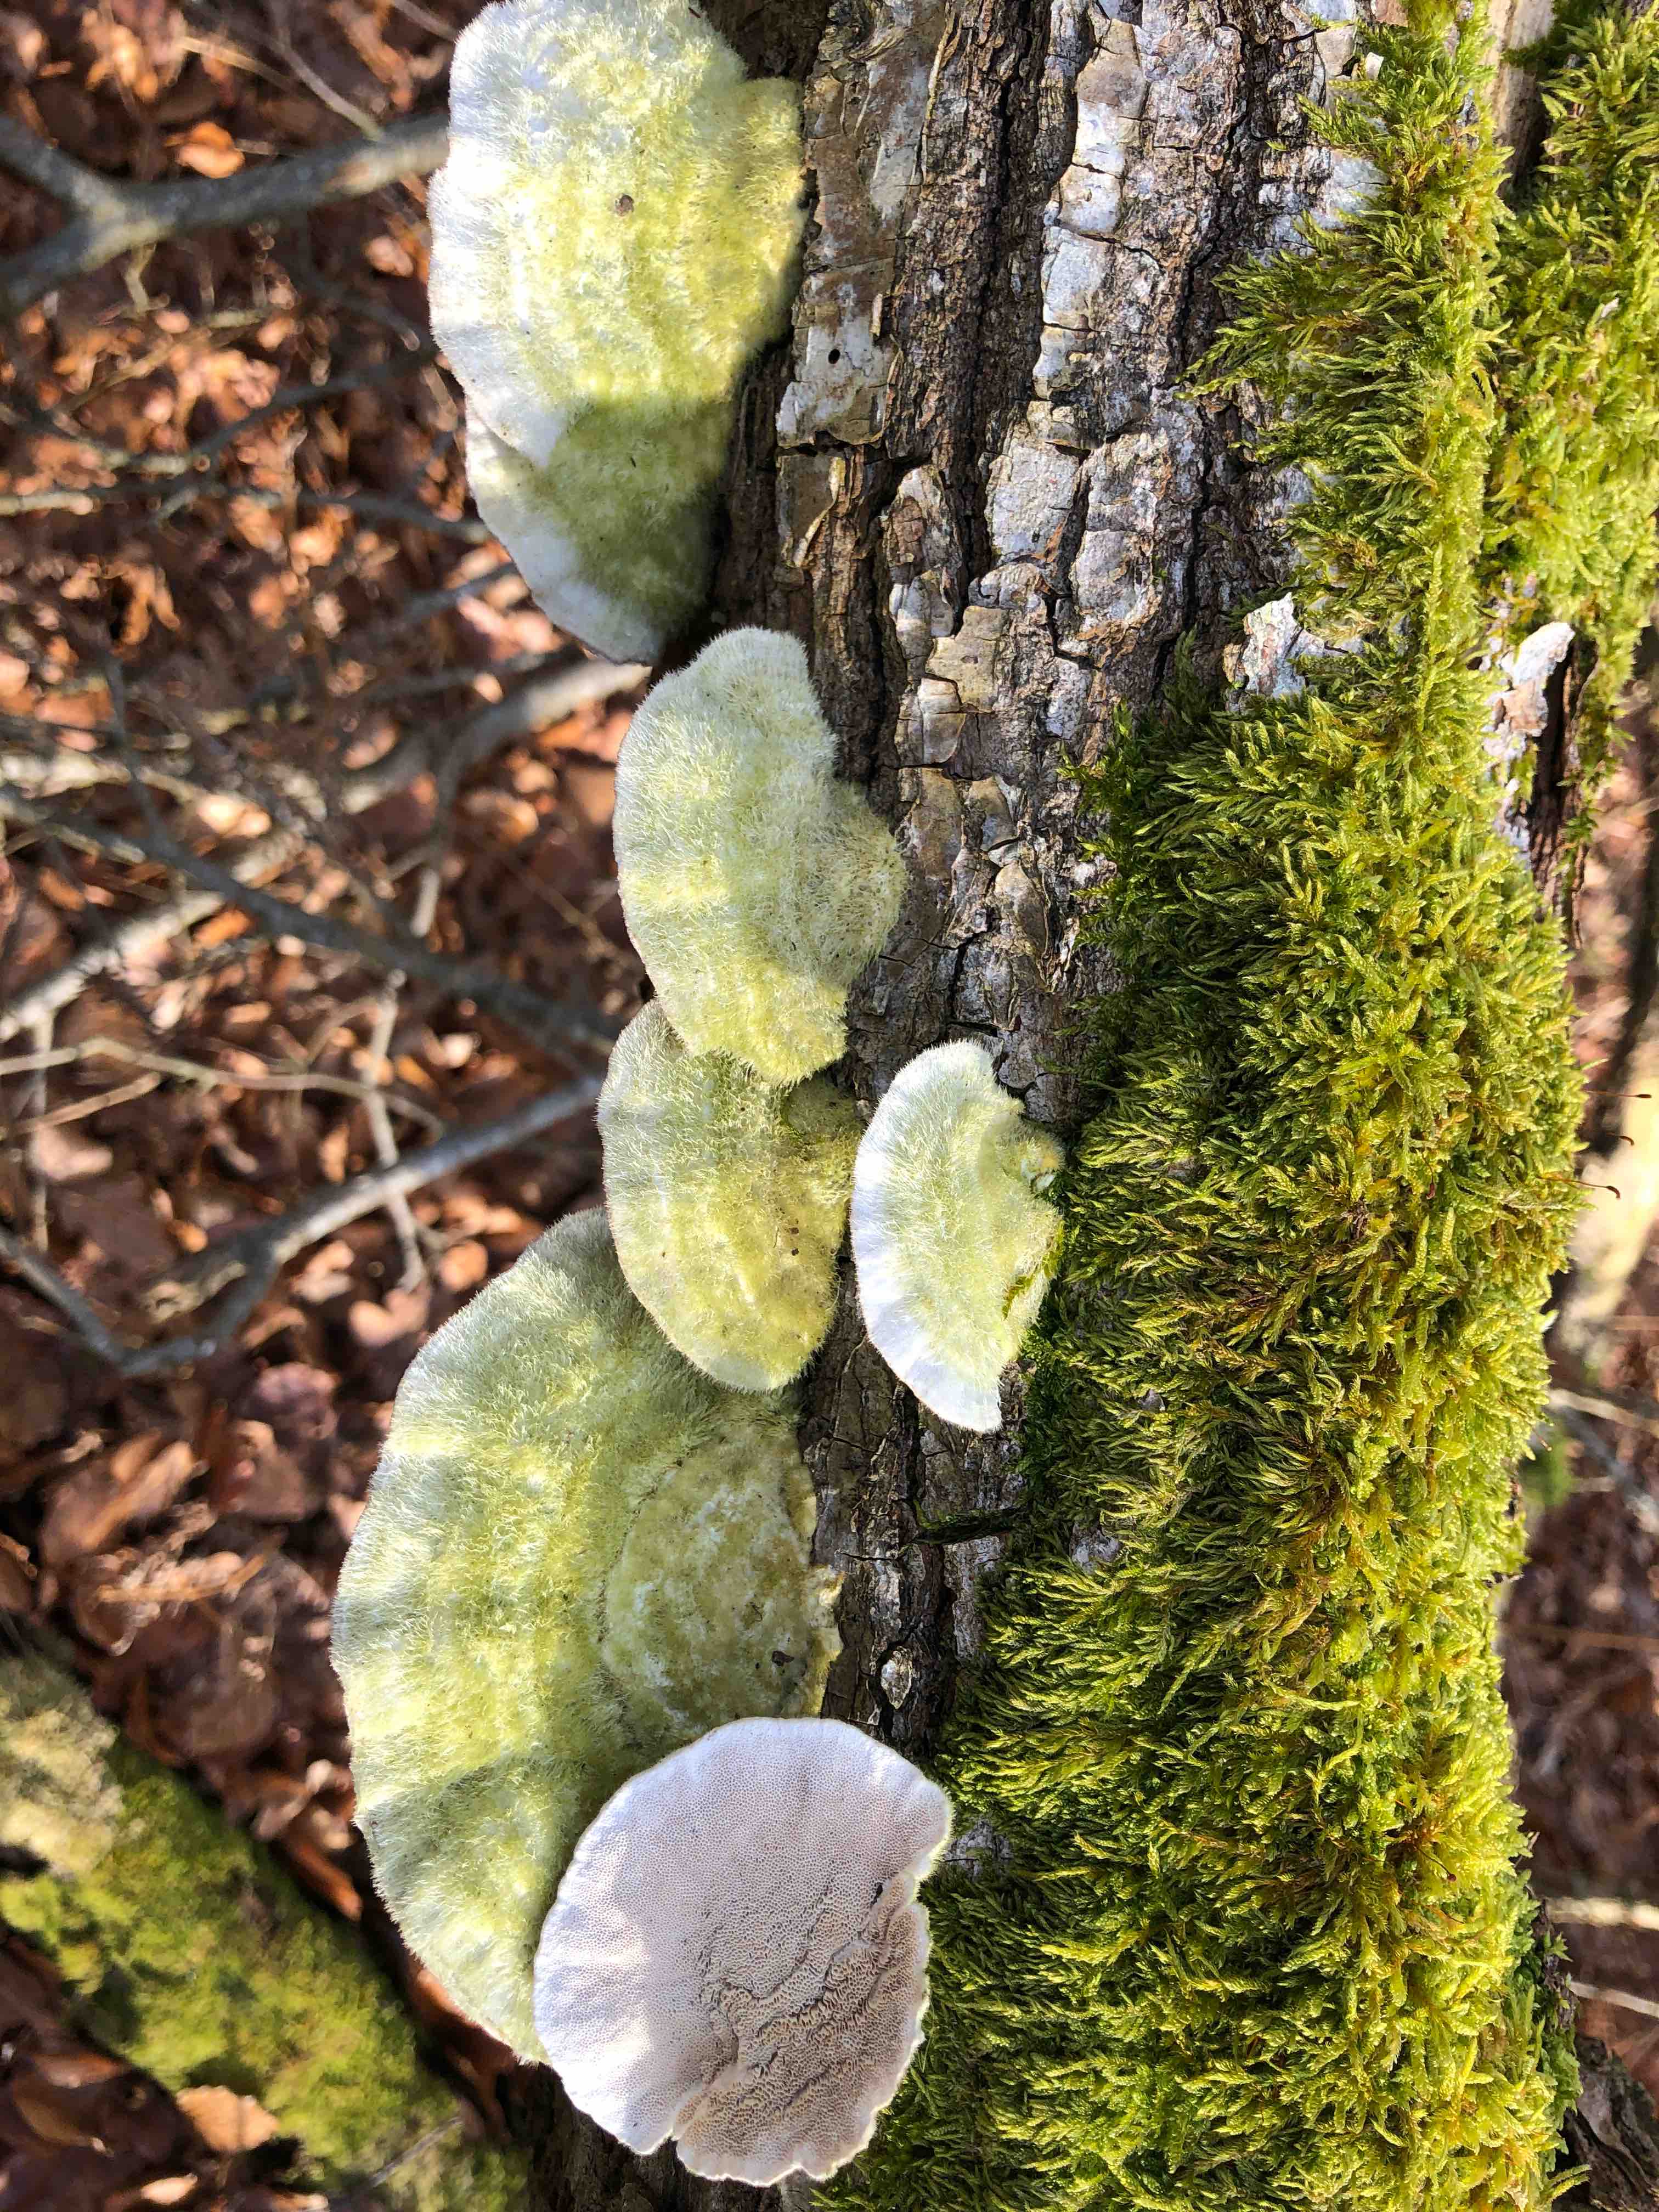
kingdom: Fungi
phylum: Basidiomycota
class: Agaricomycetes
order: Polyporales
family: Polyporaceae
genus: Trametes
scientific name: Trametes hirsuta
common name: håret læderporesvamp
